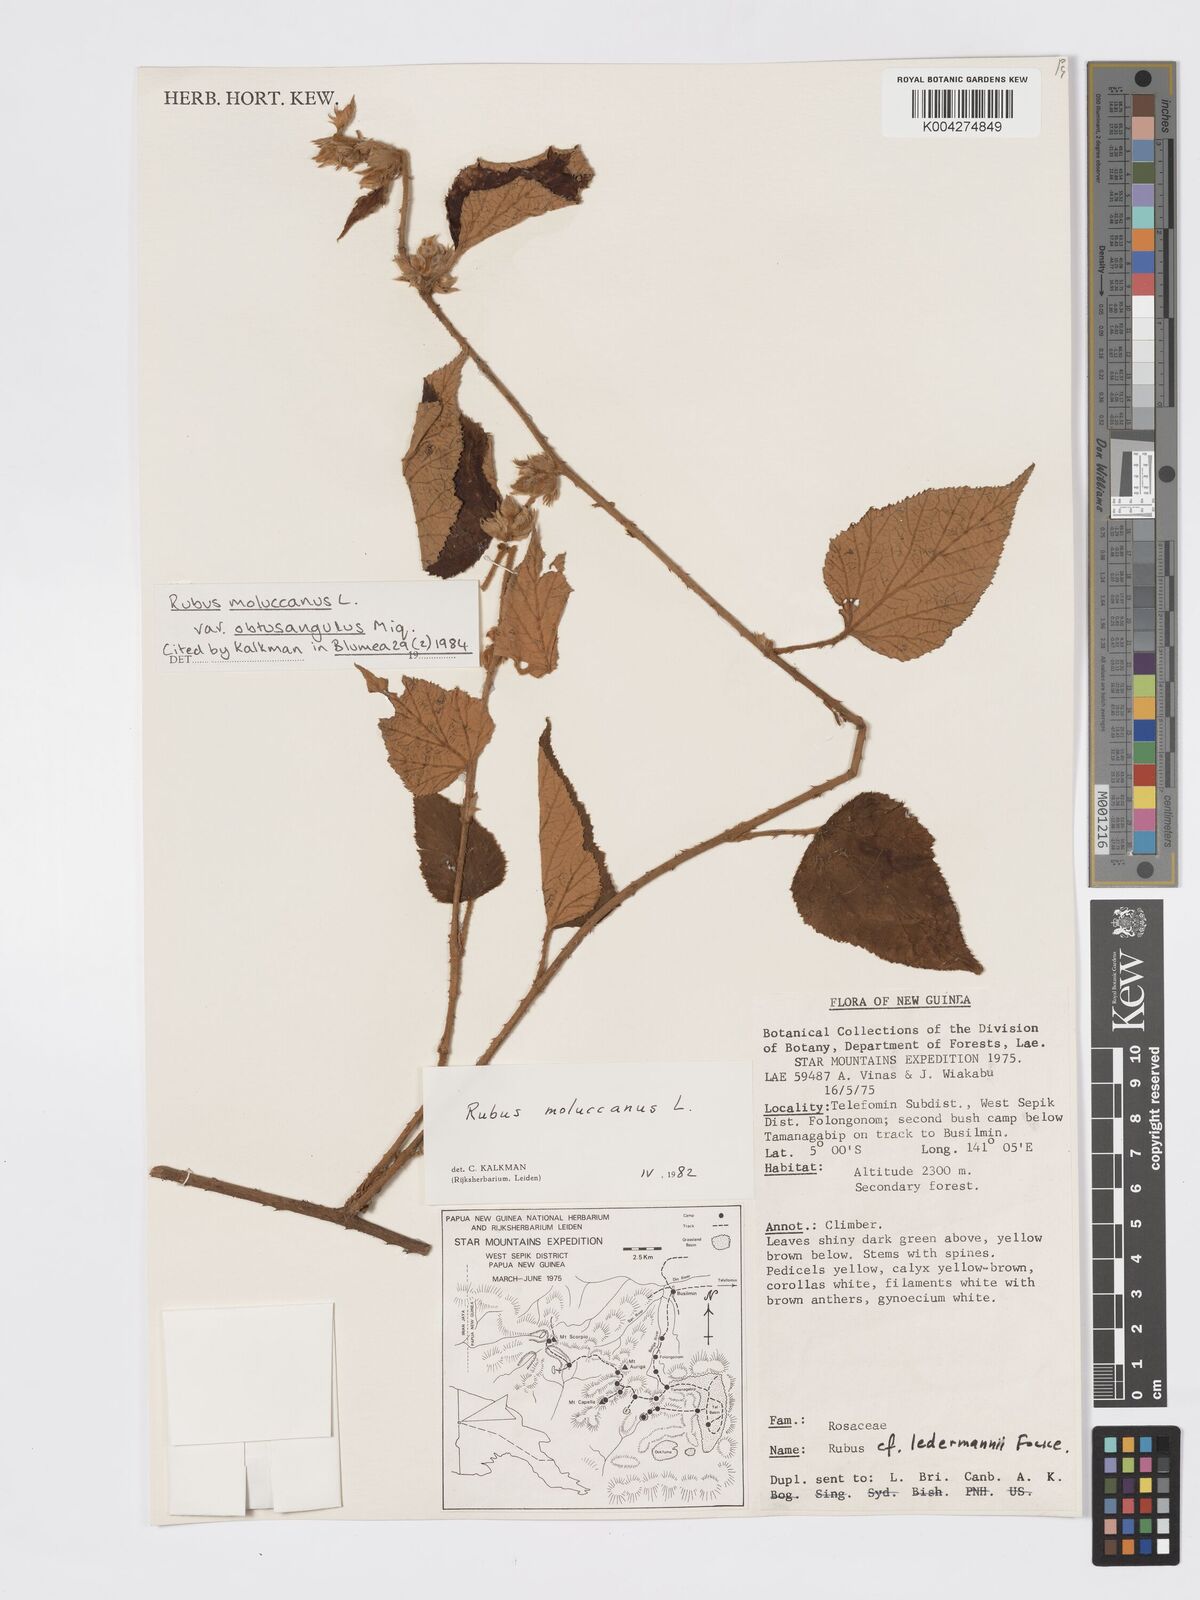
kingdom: Plantae
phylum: Tracheophyta
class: Magnoliopsida
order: Rosales
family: Rosaceae
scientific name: Rosaceae
